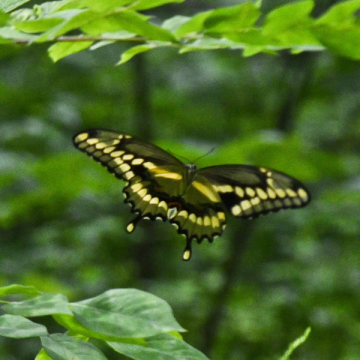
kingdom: Animalia
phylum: Arthropoda
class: Insecta
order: Lepidoptera
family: Papilionidae
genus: Papilio
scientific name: Papilio cresphontes
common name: Eastern Giant Swallowtail
